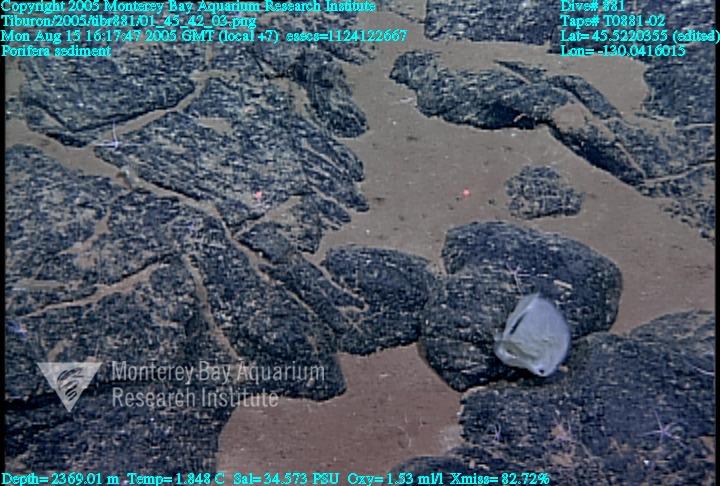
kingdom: Animalia
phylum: Porifera
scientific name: Porifera
